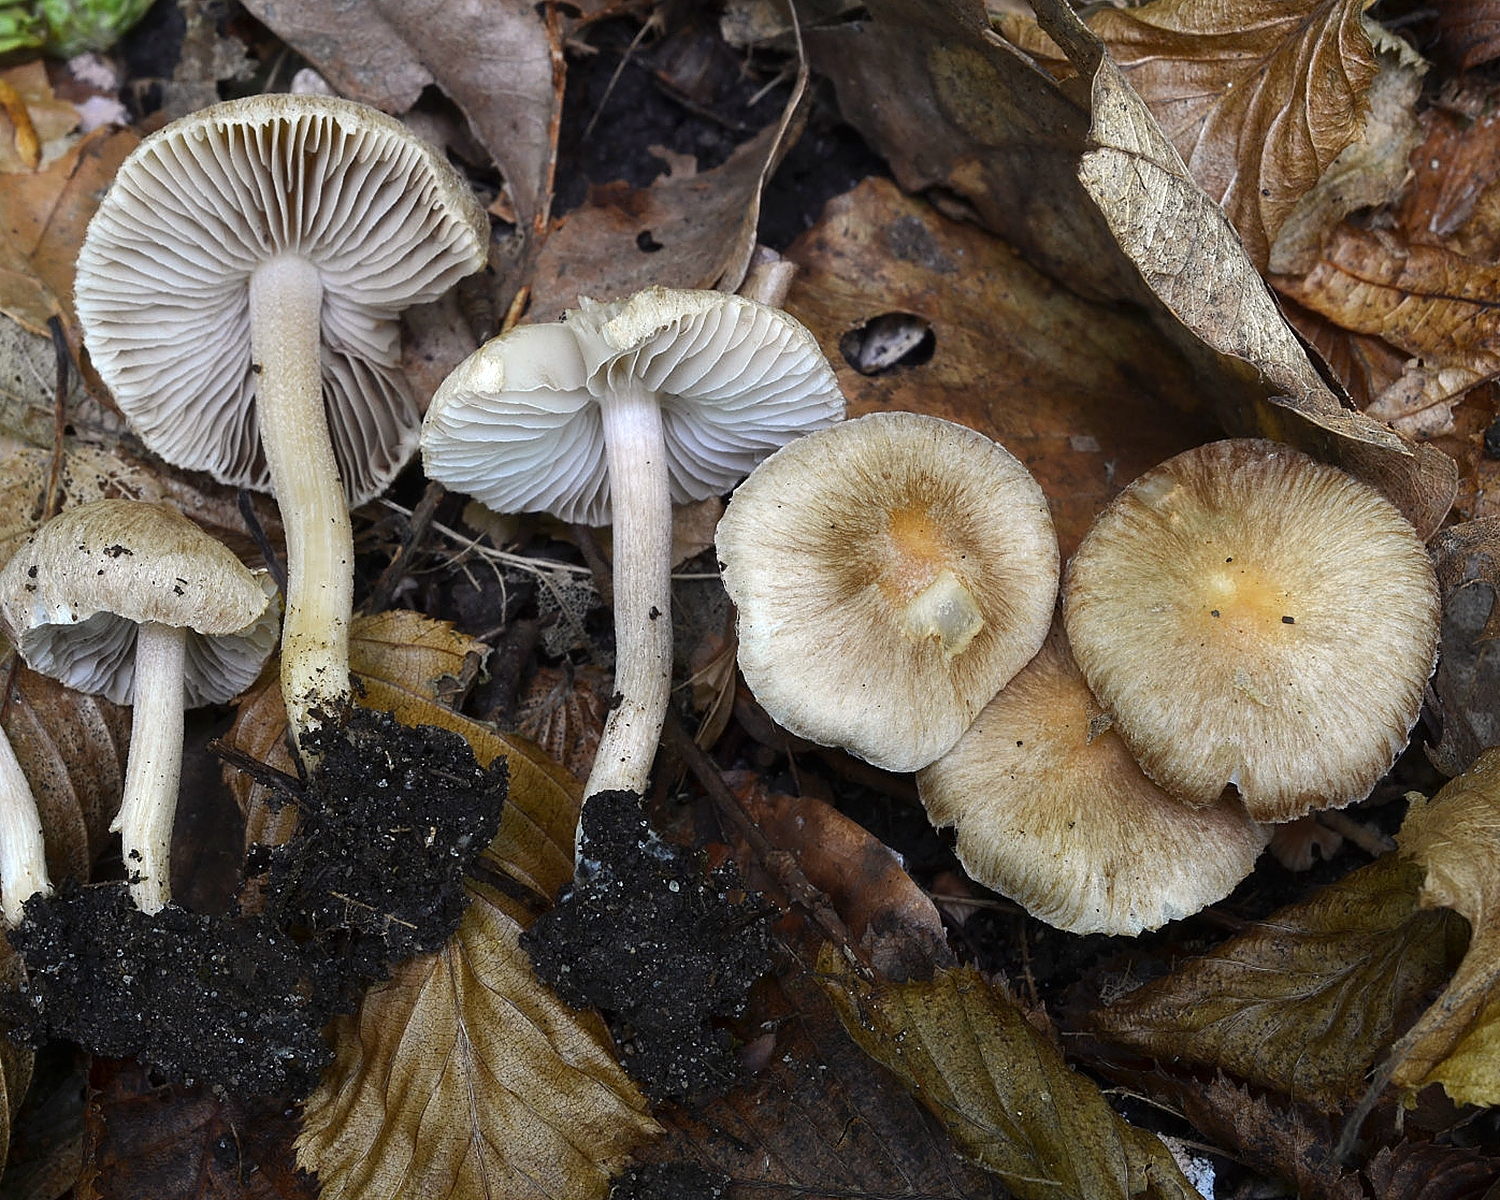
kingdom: Fungi
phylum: Basidiomycota
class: Agaricomycetes
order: Agaricales
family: Inocybaceae
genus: Inocybe
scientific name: Inocybe ovilla
